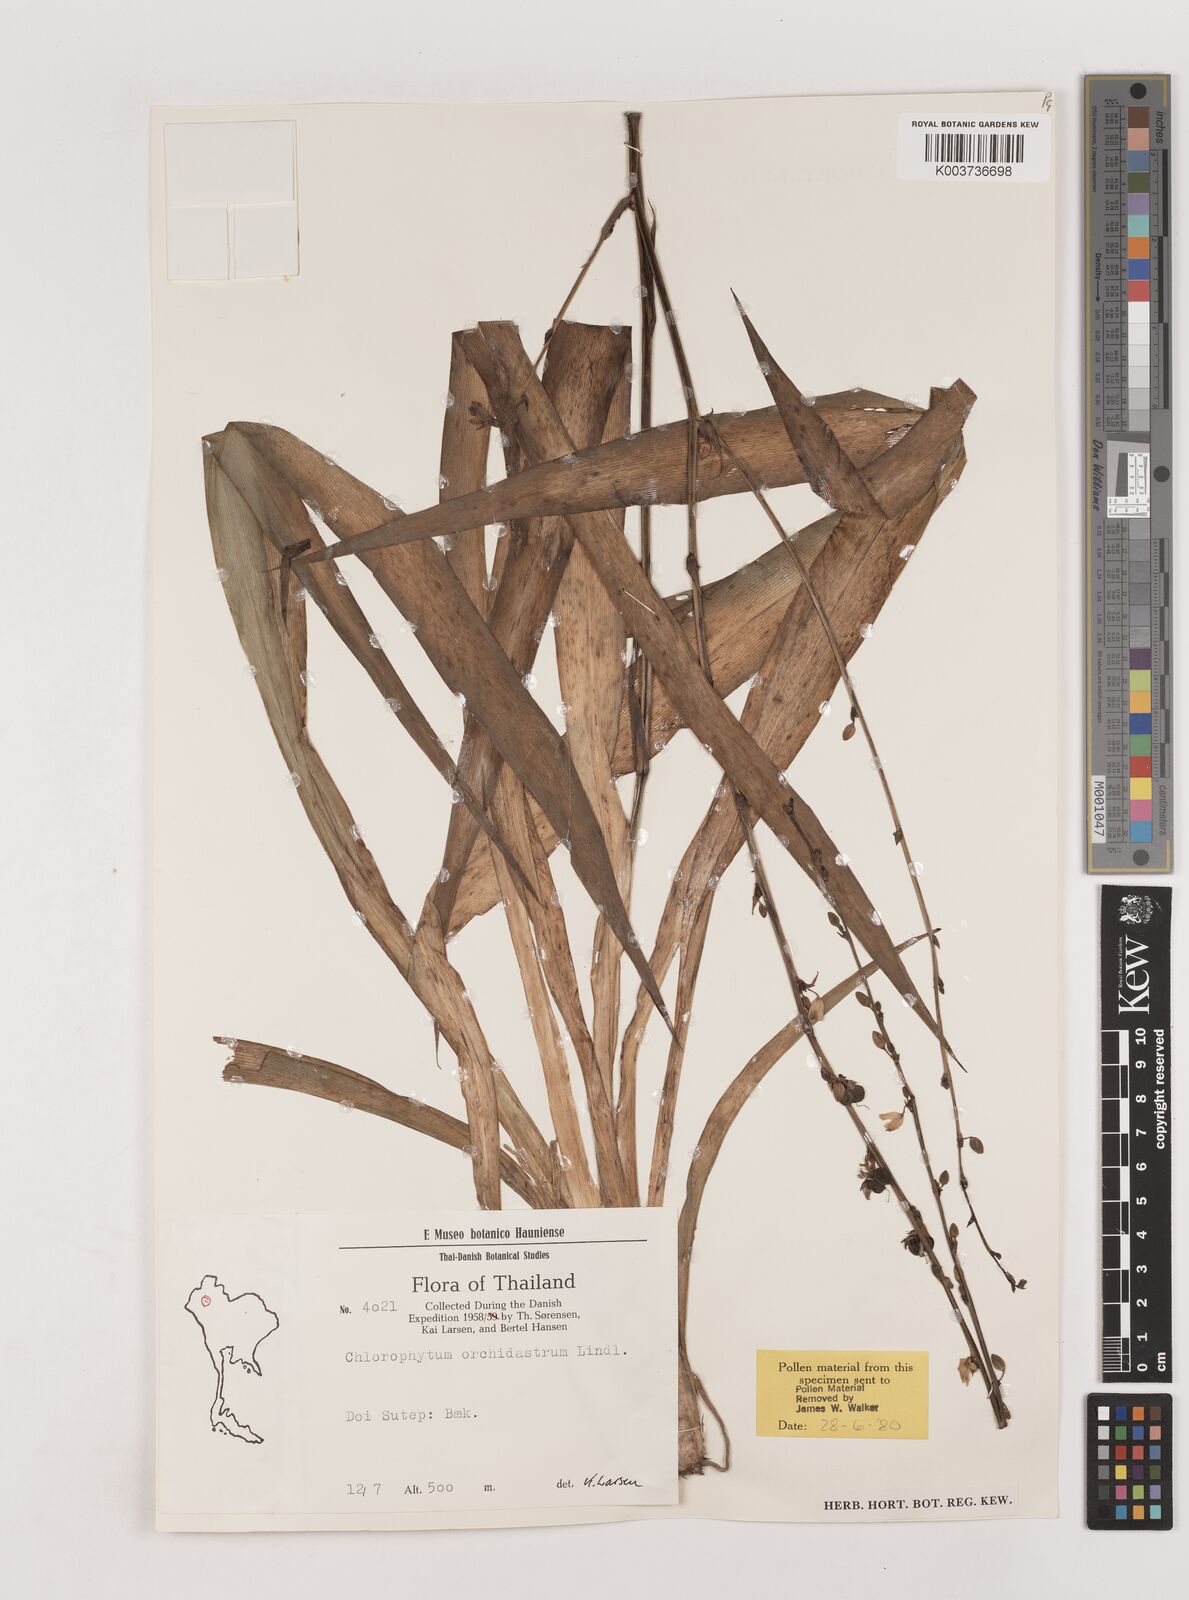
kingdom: Plantae
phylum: Tracheophyta
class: Liliopsida
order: Asparagales
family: Asparagaceae
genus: Chlorophytum
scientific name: Chlorophytum orchidastrum
